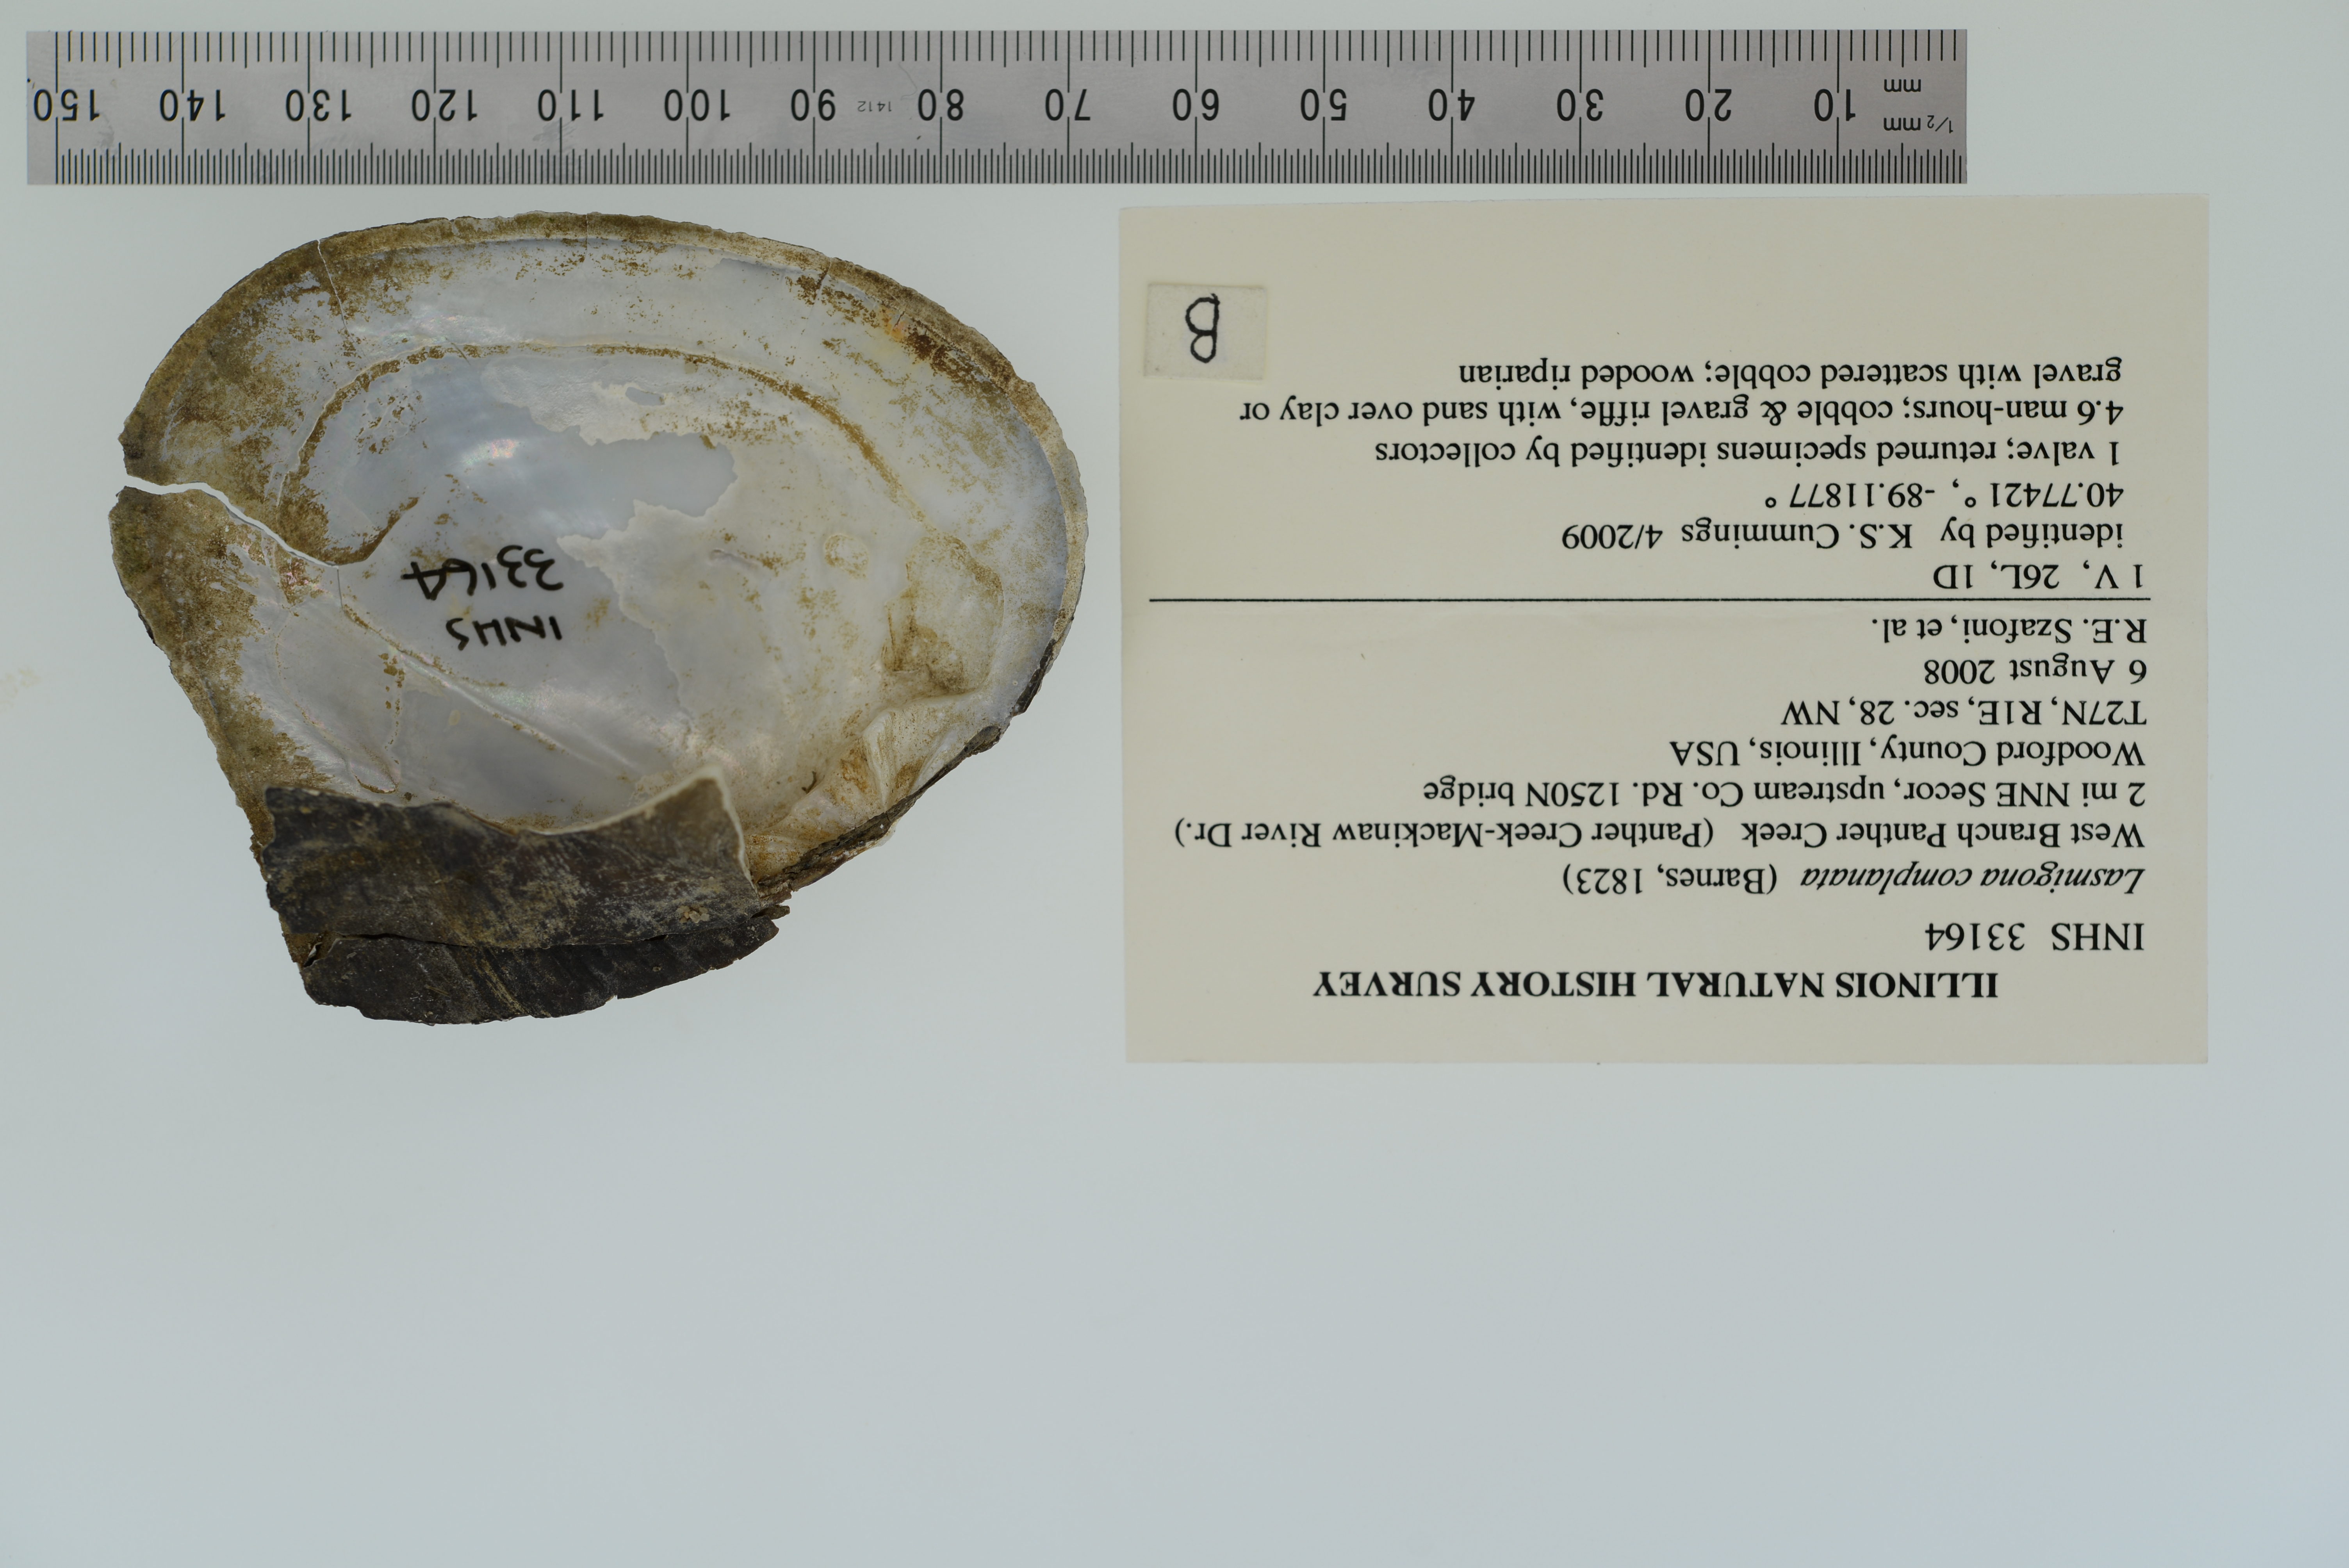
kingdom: Animalia
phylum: Mollusca
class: Bivalvia
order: Unionida
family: Unionidae
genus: Lasmigona
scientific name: Lasmigona complanata
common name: White heelsplitter
